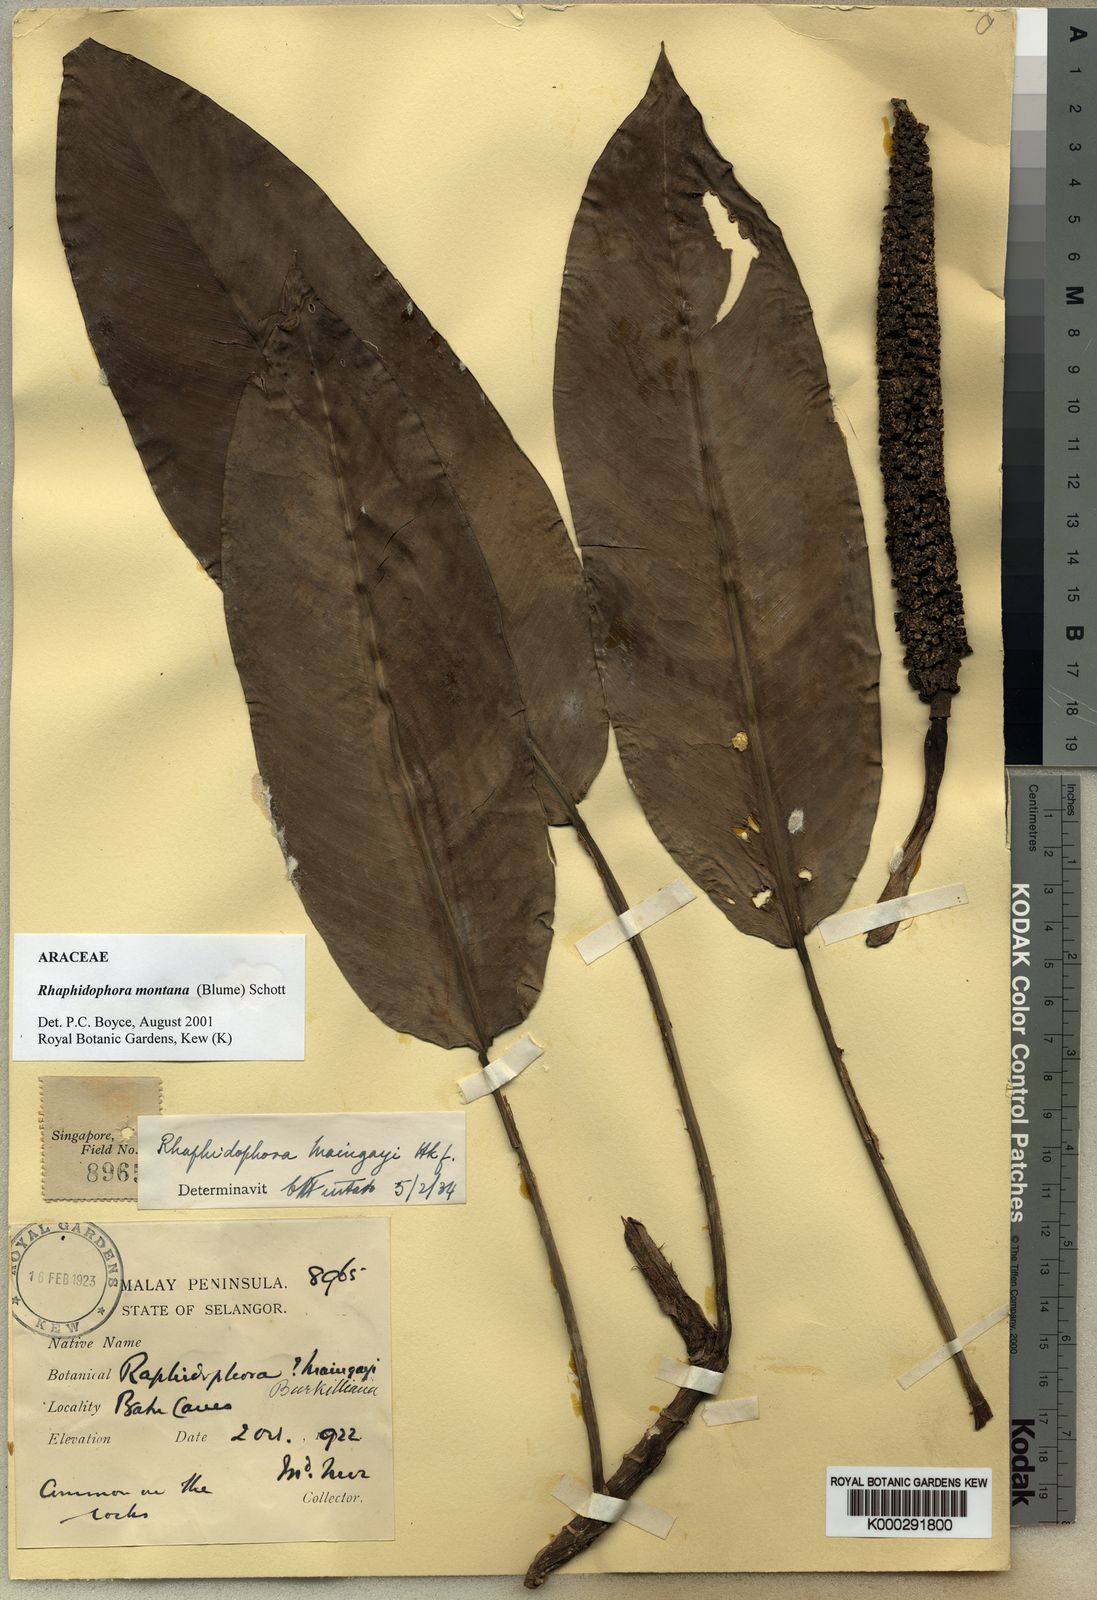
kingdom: Plantae
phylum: Tracheophyta
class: Liliopsida
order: Alismatales
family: Araceae
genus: Rhaphidophora
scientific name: Rhaphidophora montana
